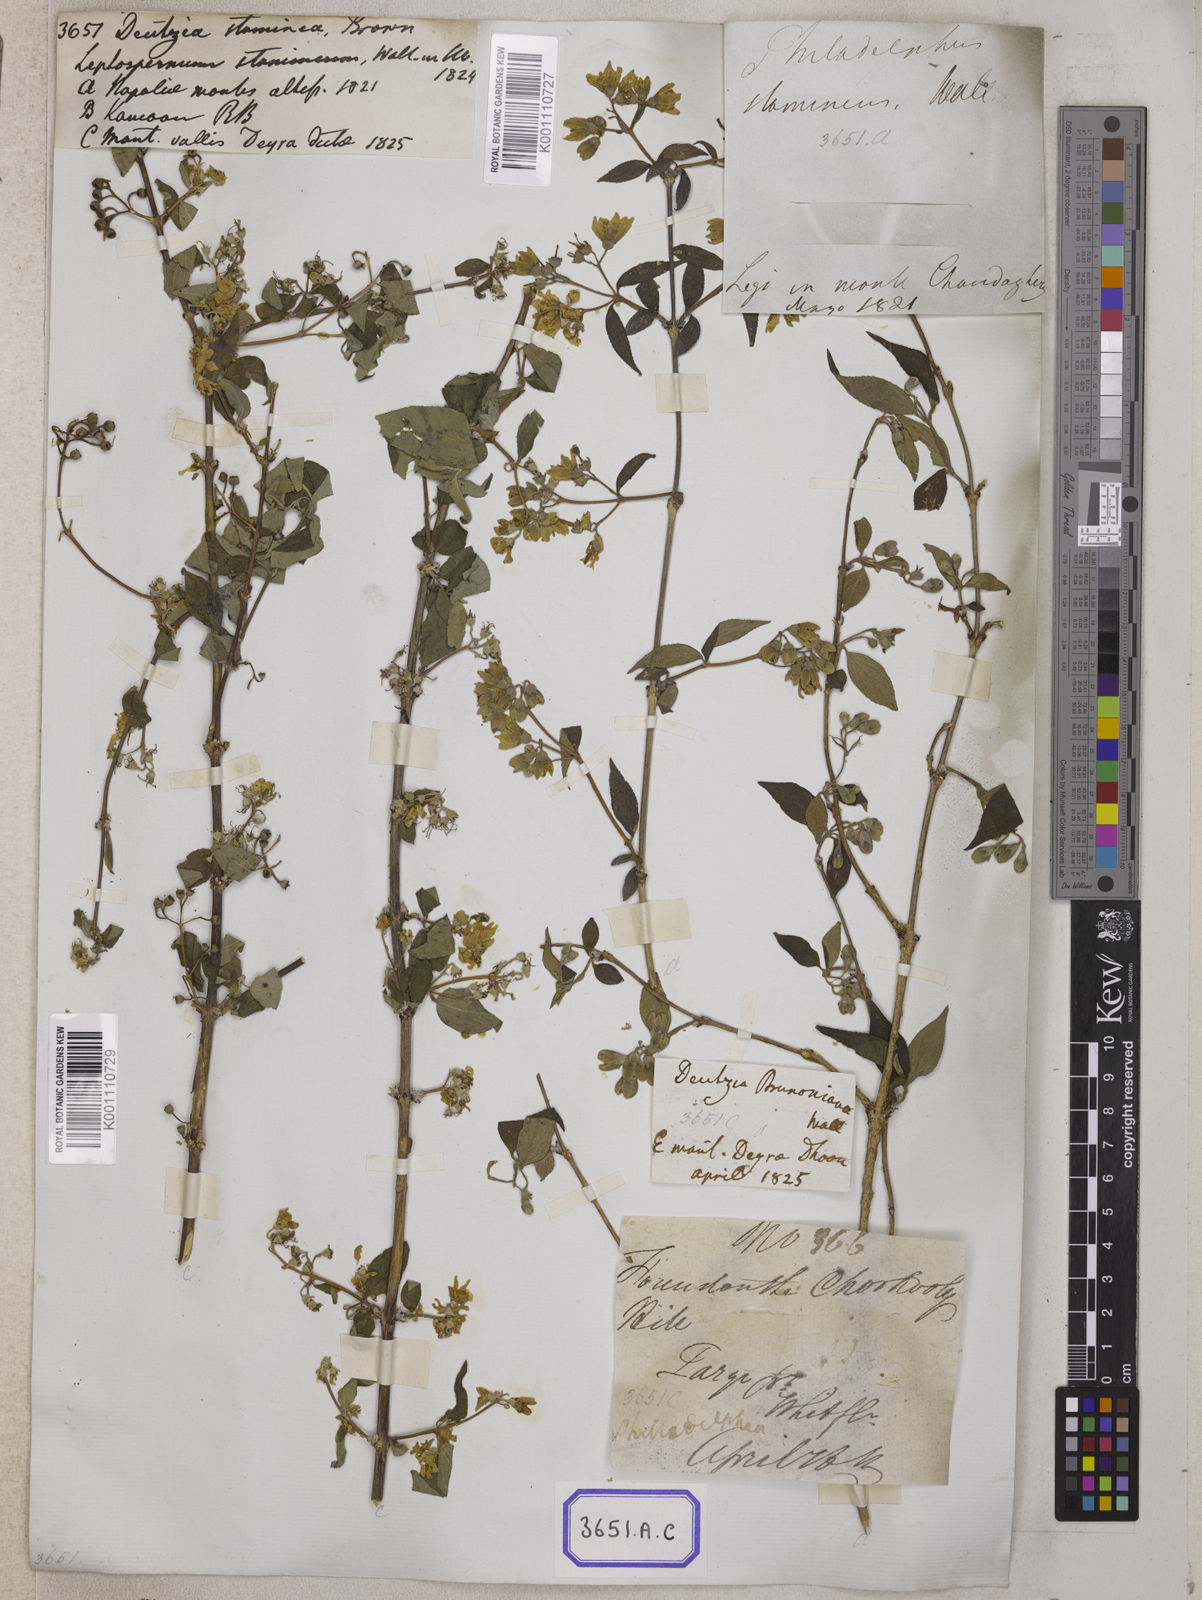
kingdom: Plantae
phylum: Tracheophyta
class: Magnoliopsida
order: Cornales
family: Hydrangeaceae
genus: Deutzia
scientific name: Deutzia
